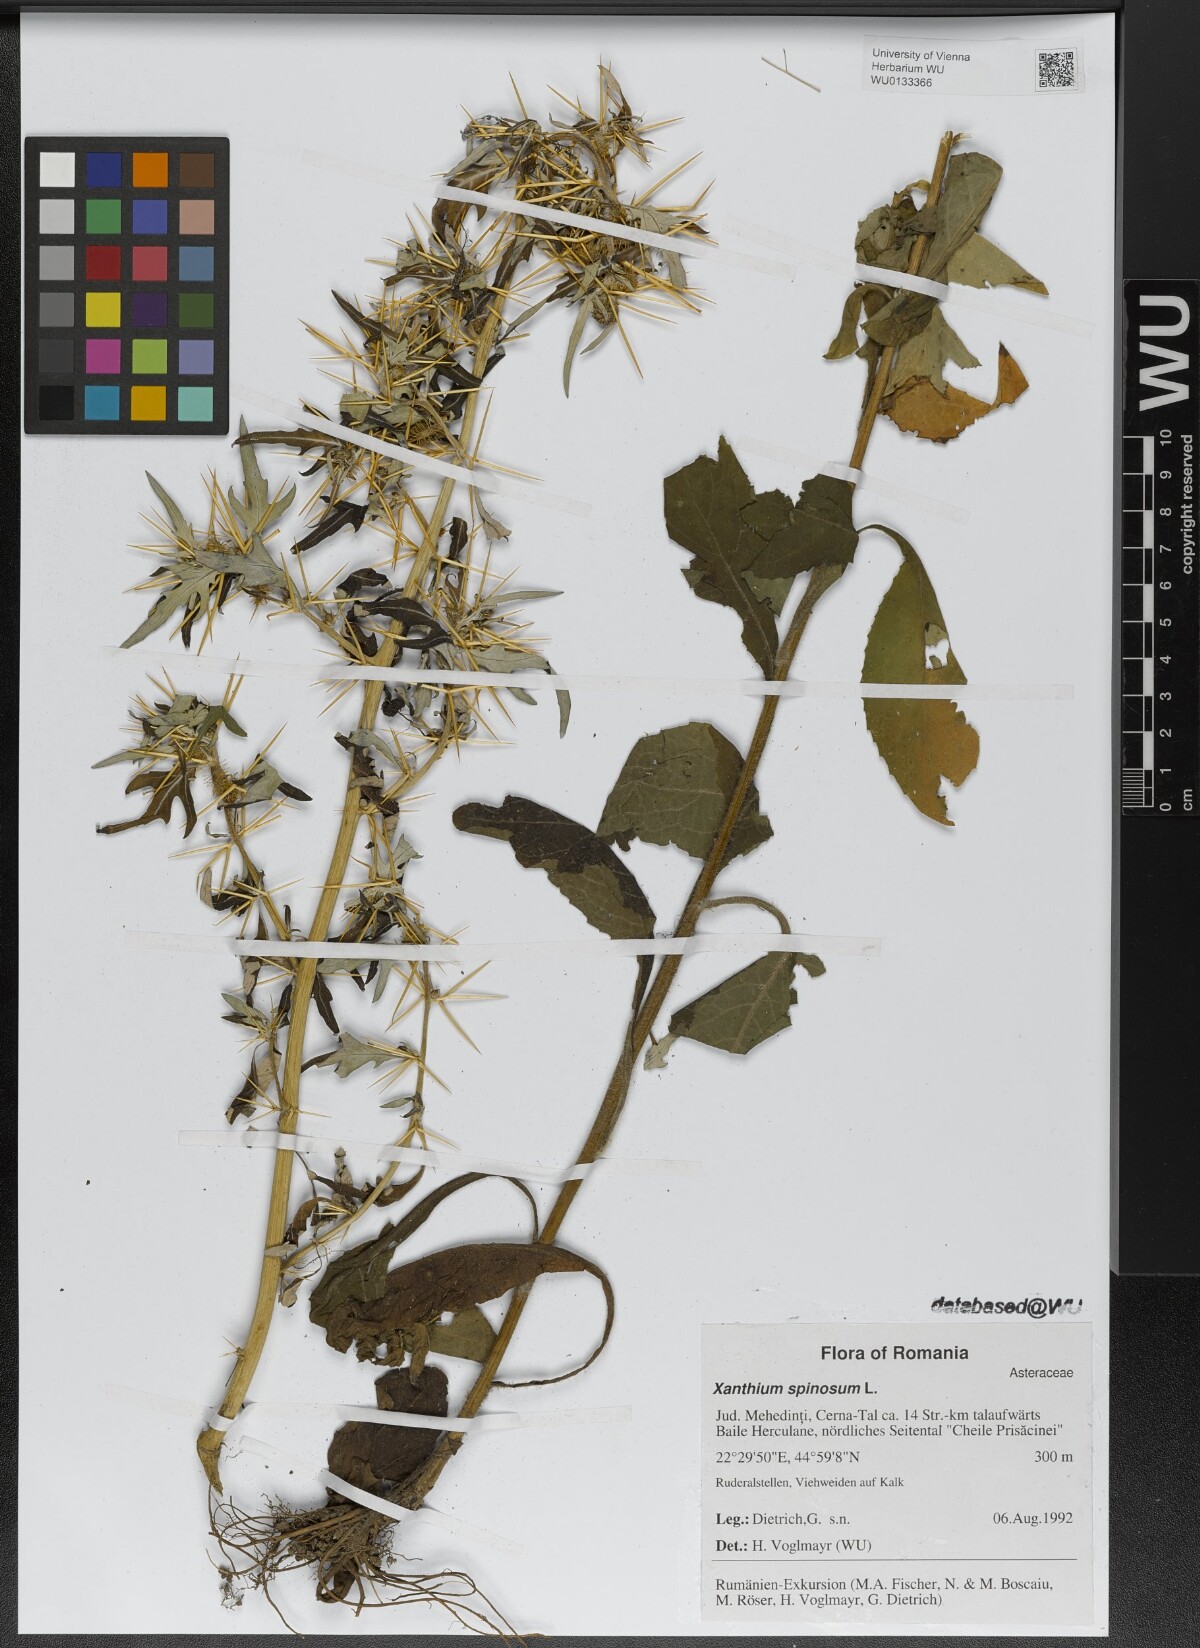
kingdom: Plantae
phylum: Tracheophyta
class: Magnoliopsida
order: Asterales
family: Asteraceae
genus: Xanthium
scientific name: Xanthium spinosum
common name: Spiny cocklebur
